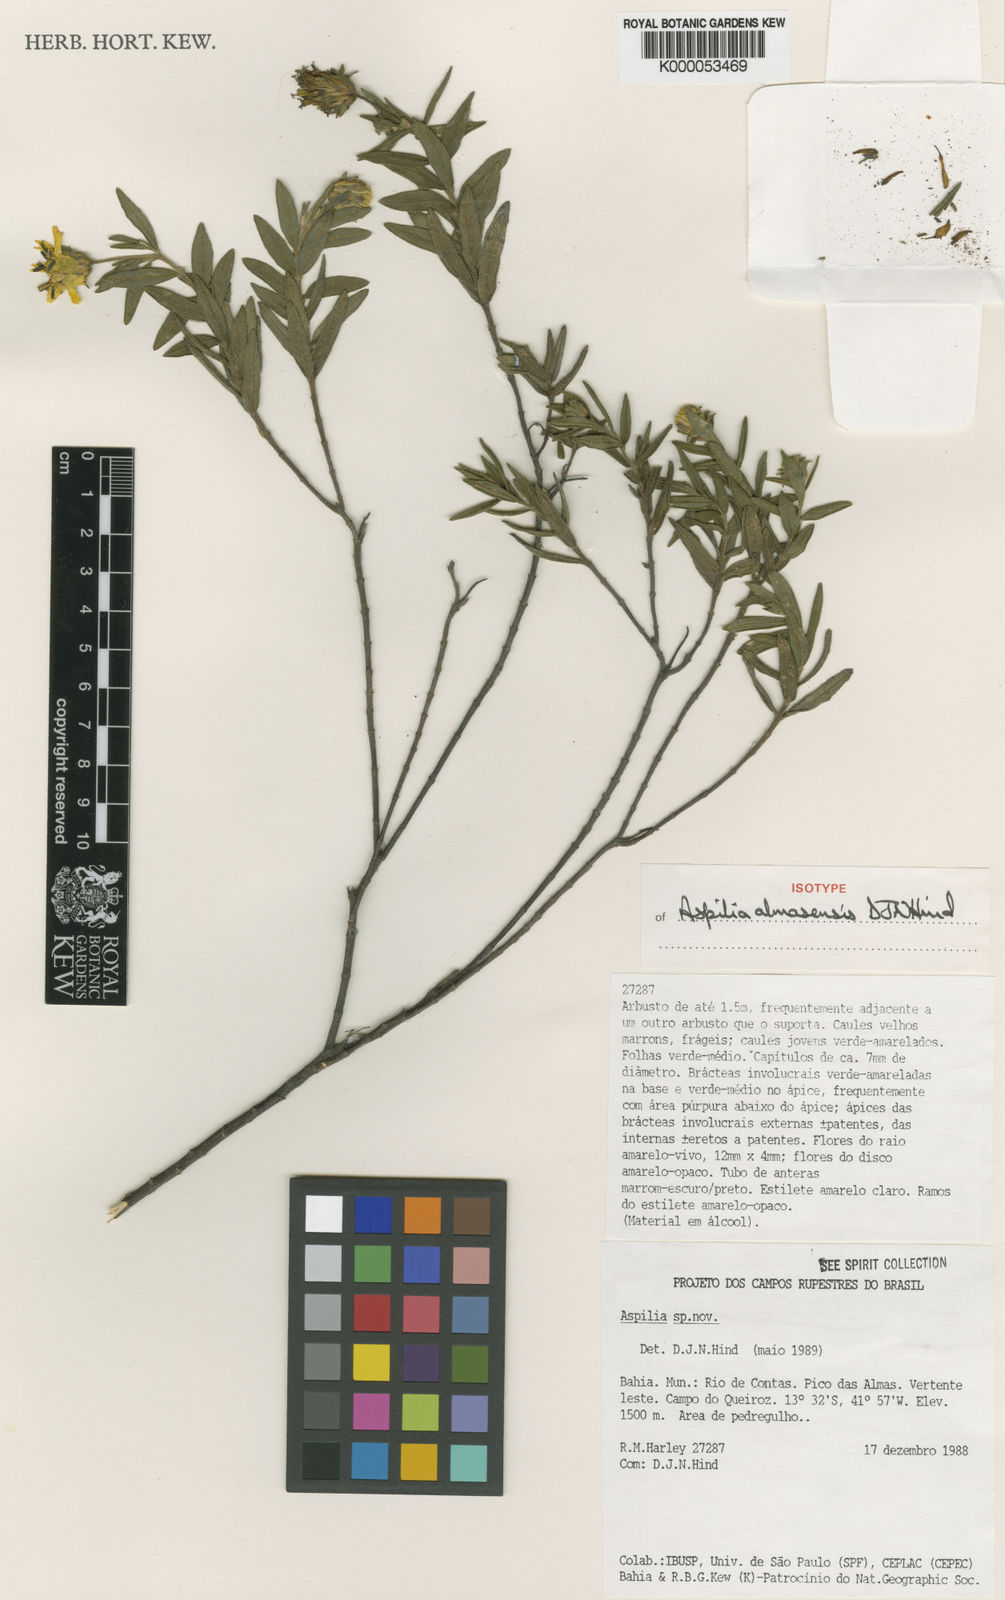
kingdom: Plantae
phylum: Tracheophyta
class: Magnoliopsida
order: Asterales
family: Asteraceae
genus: Aspilia
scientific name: Aspilia almasensis
